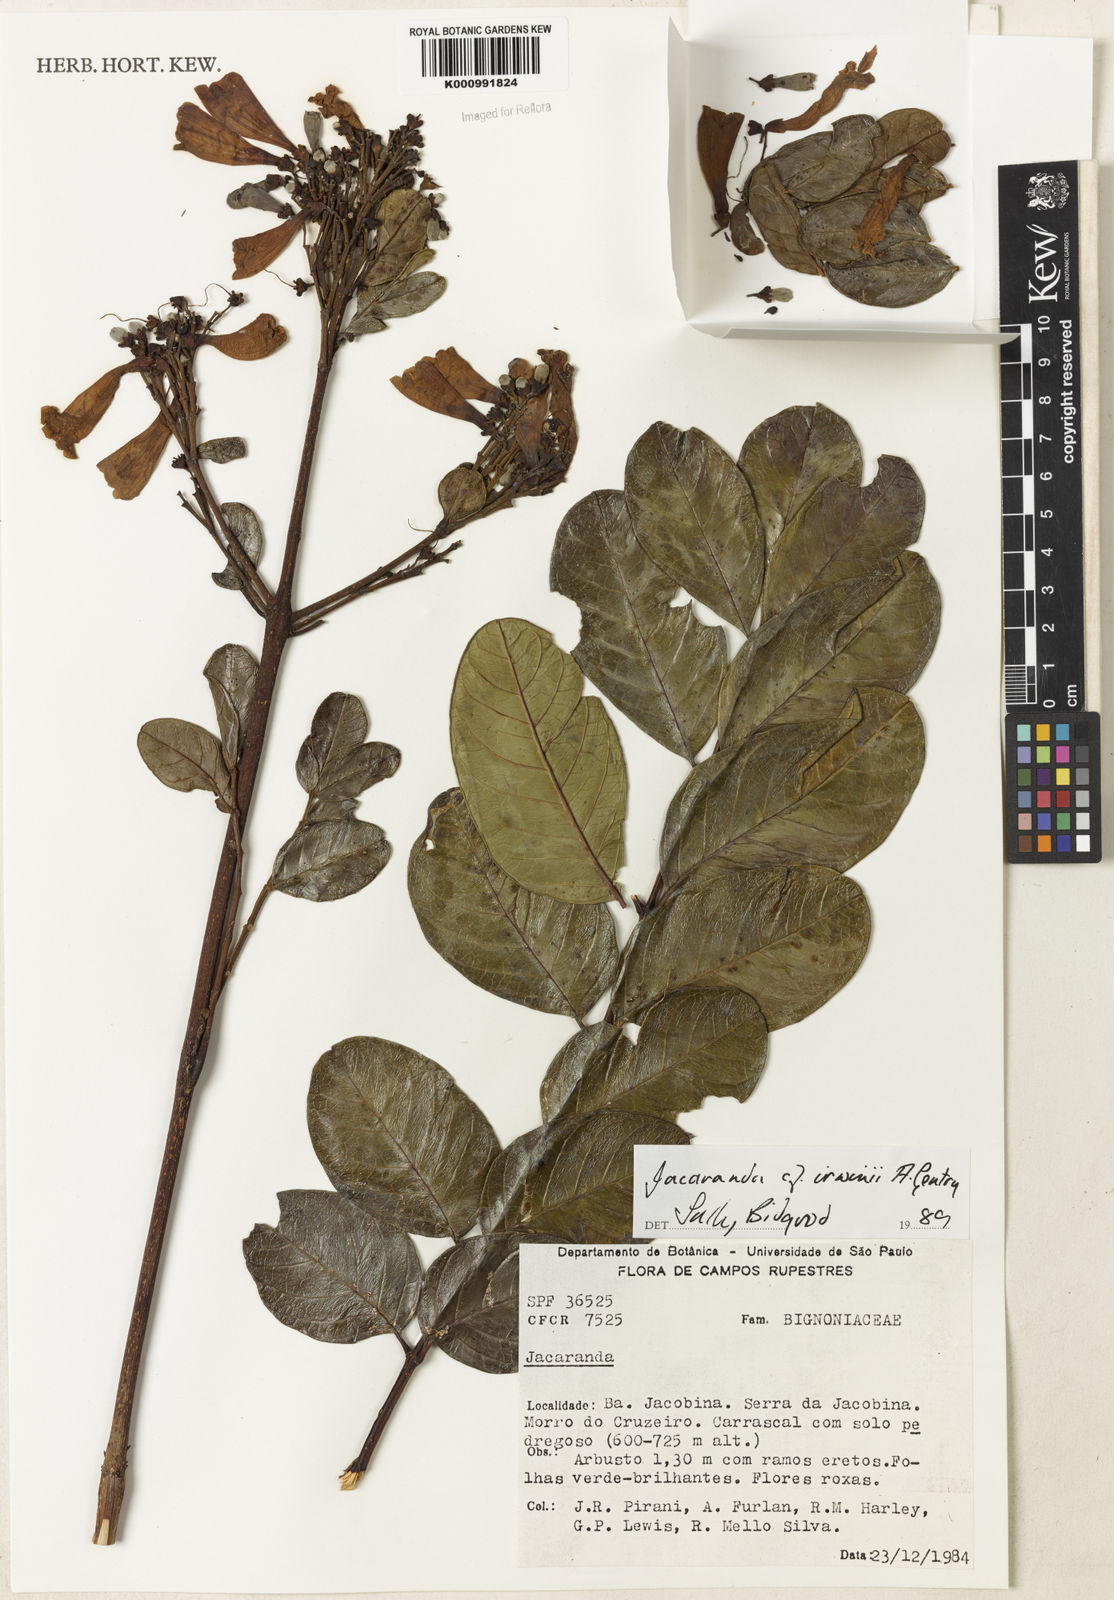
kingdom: Plantae
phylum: Tracheophyta
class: Magnoliopsida
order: Lamiales
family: Bignoniaceae
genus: Jacaranda
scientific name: Jacaranda irwinii
